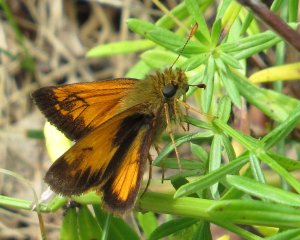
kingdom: Animalia
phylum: Arthropoda
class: Insecta
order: Lepidoptera
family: Hesperiidae
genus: Lon
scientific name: Lon hobomok
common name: Hobomok Skipper
